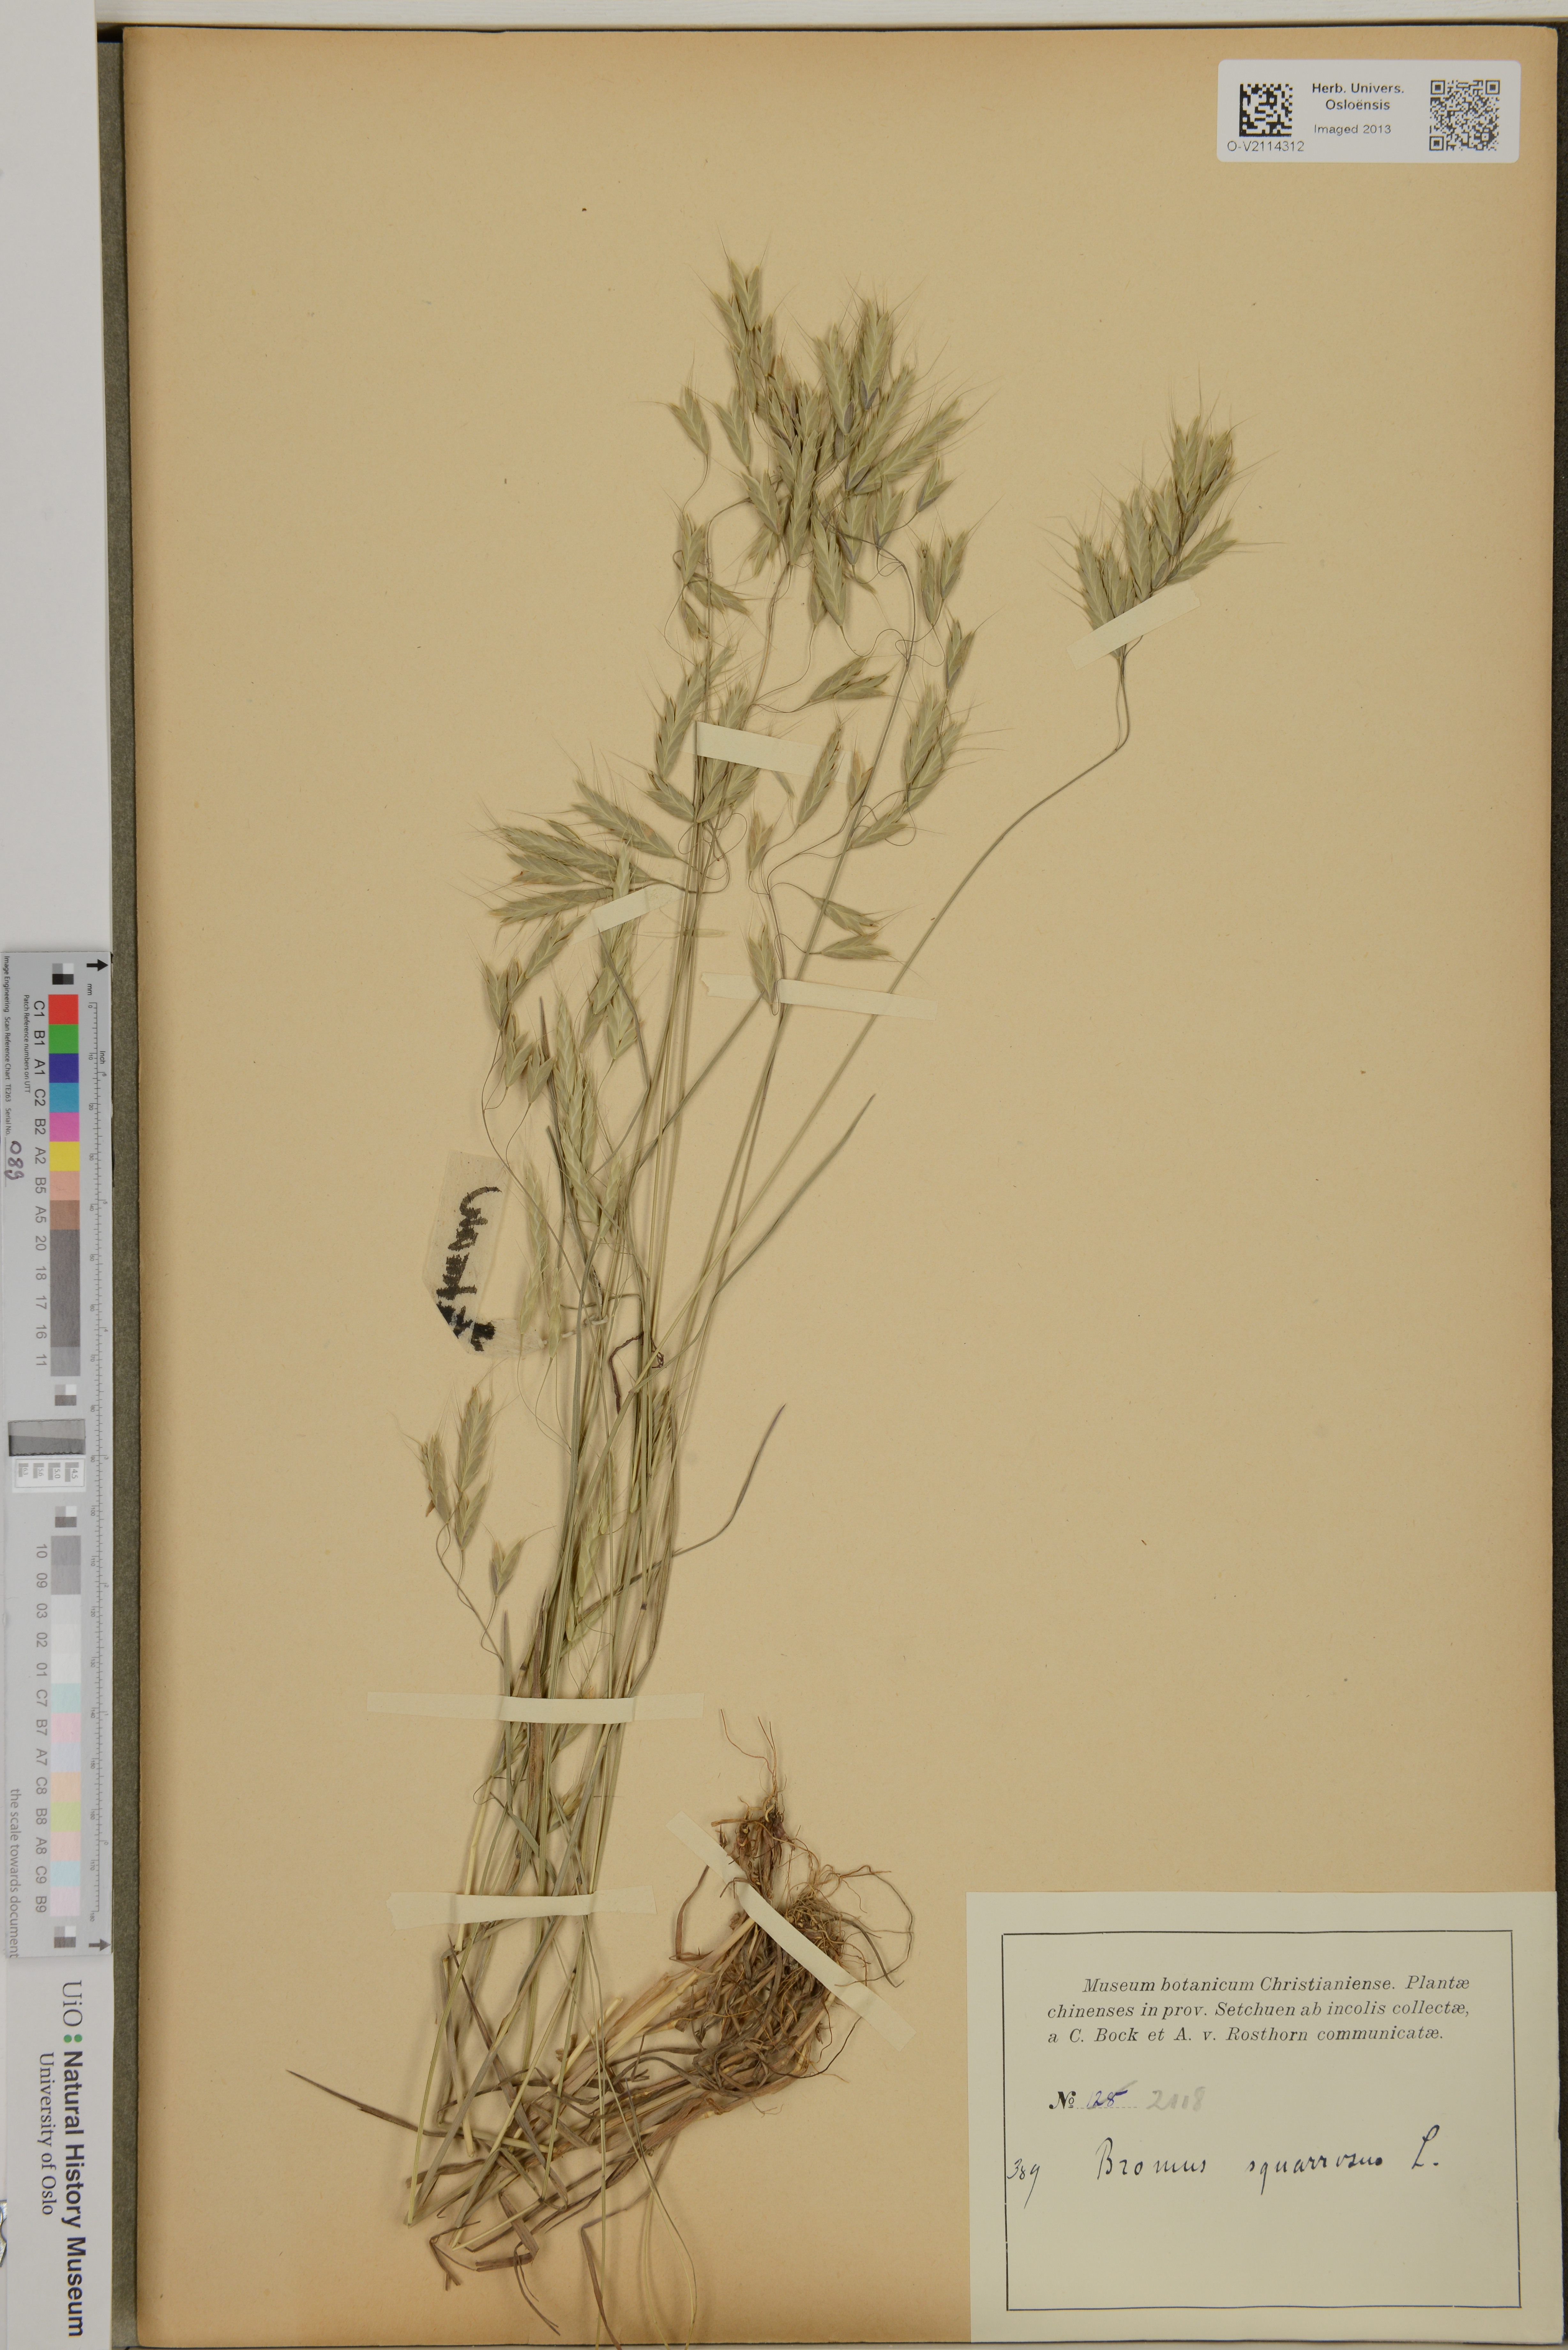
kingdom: Plantae
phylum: Tracheophyta
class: Liliopsida
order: Poales
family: Poaceae
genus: Bromus
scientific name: Bromus squarrosus
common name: Corn brome
